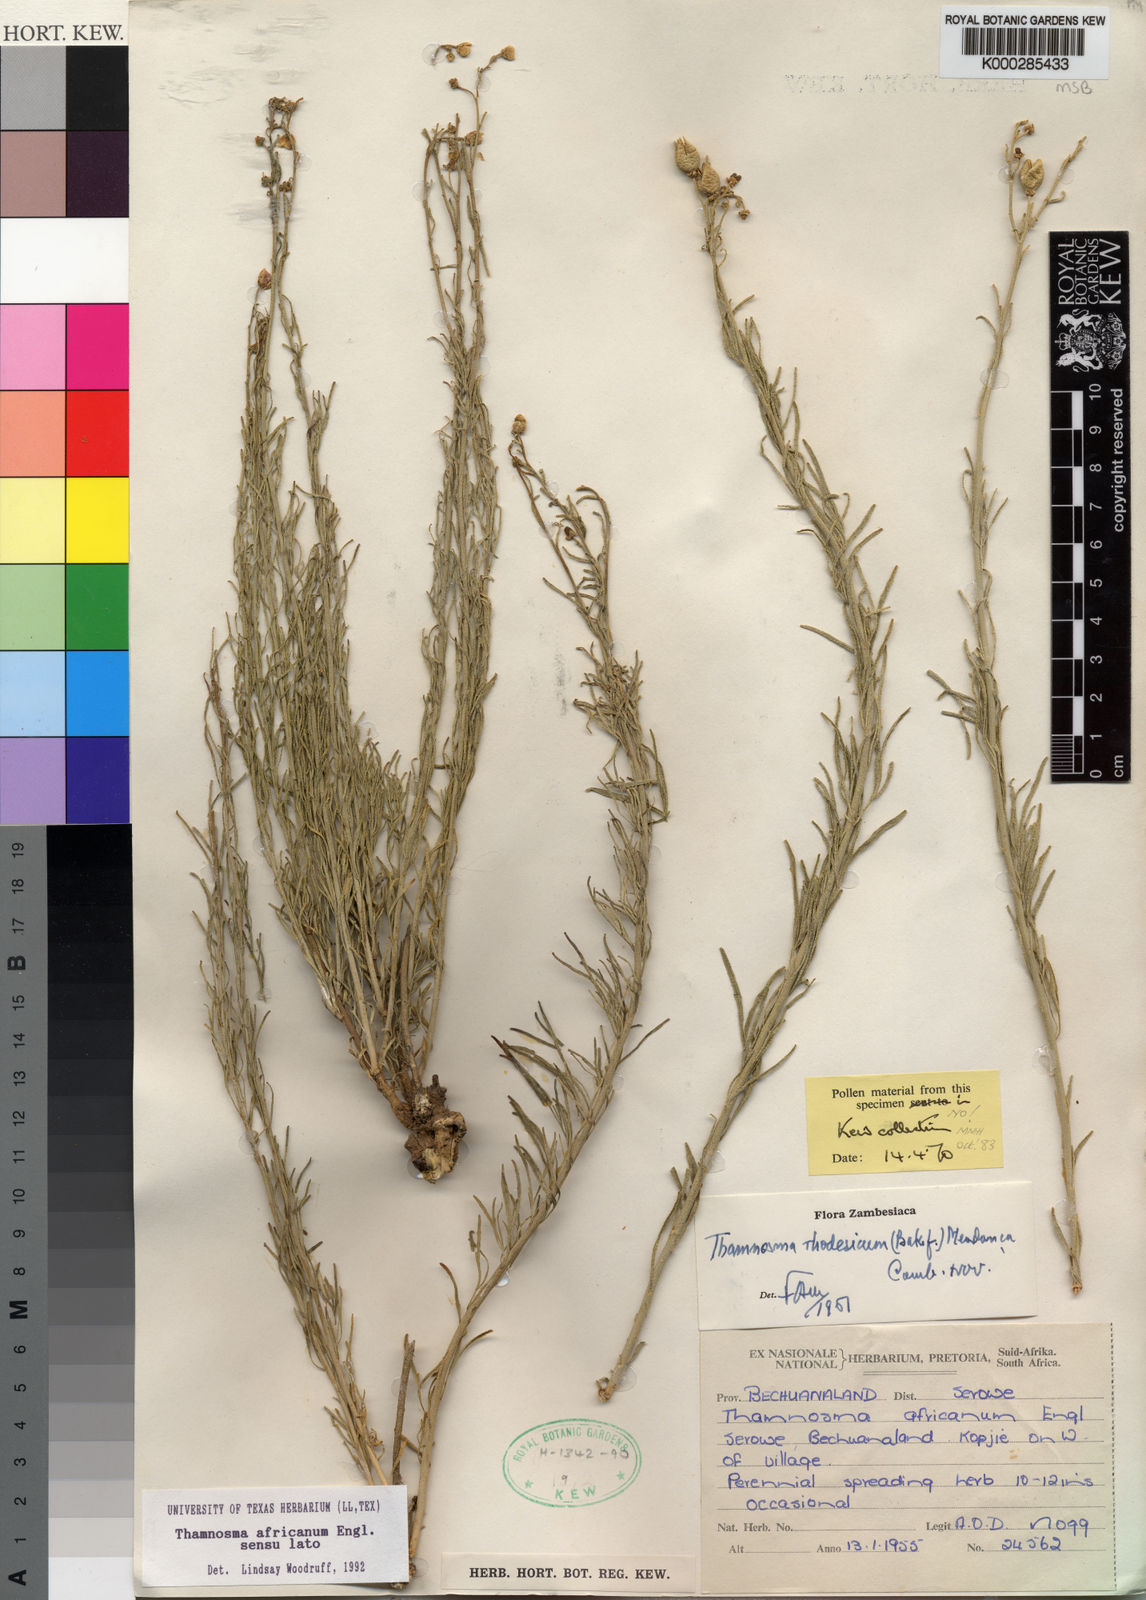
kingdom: Plantae
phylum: Tracheophyta
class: Magnoliopsida
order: Sapindales
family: Rutaceae
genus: Thamnosma
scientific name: Thamnosma rhodesica
